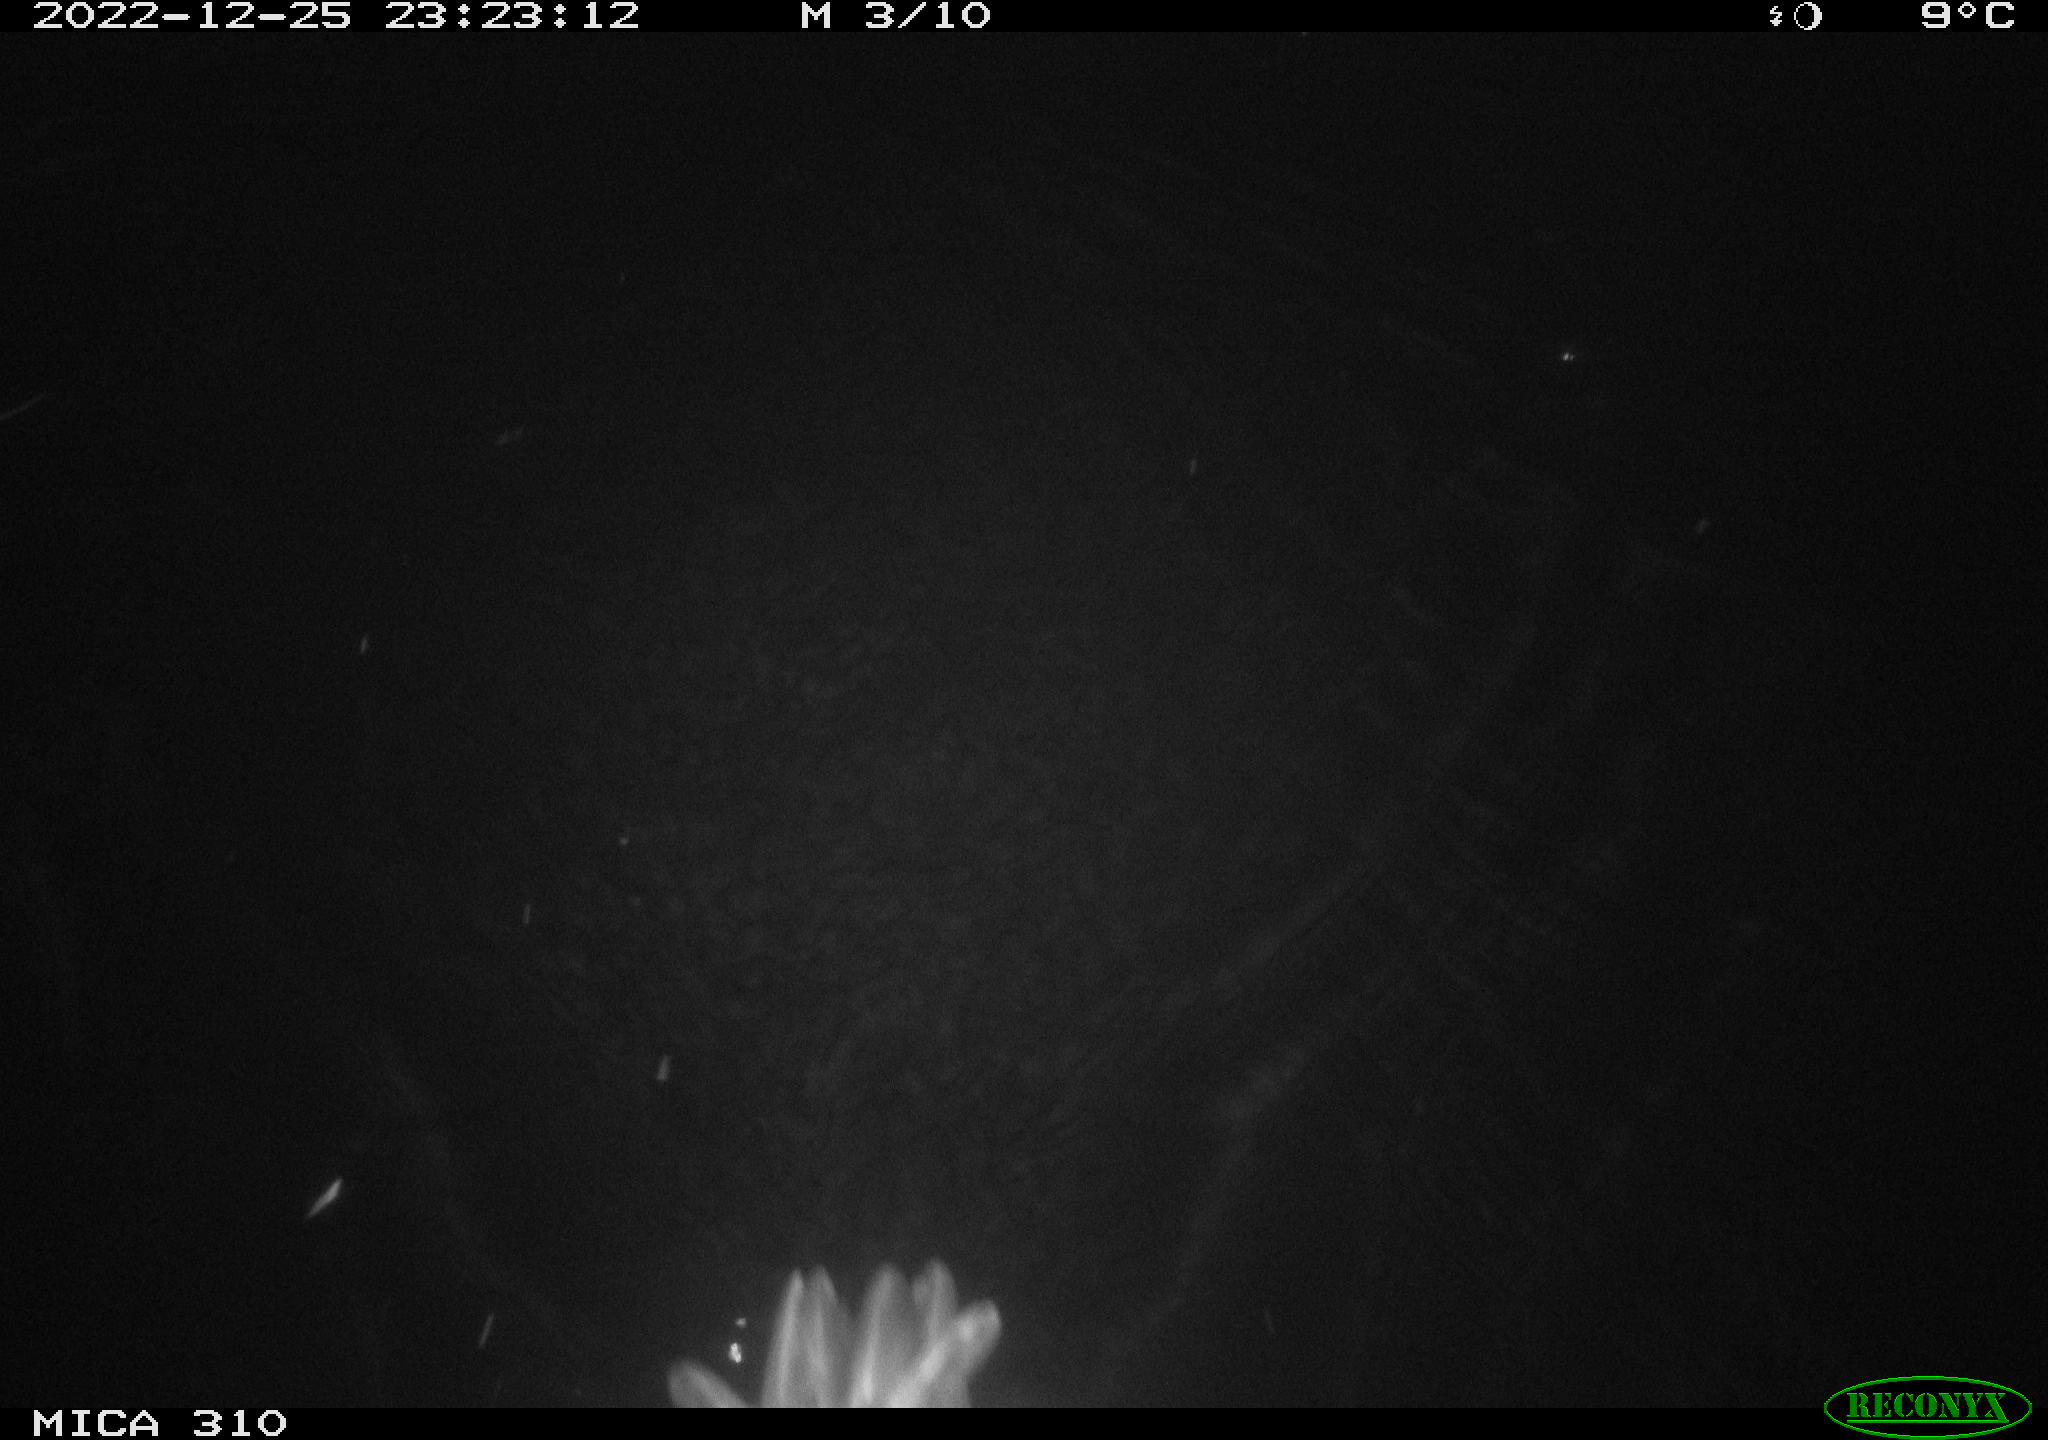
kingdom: Animalia
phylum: Chordata
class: Aves
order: Anseriformes
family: Anatidae
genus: Anas
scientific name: Anas
